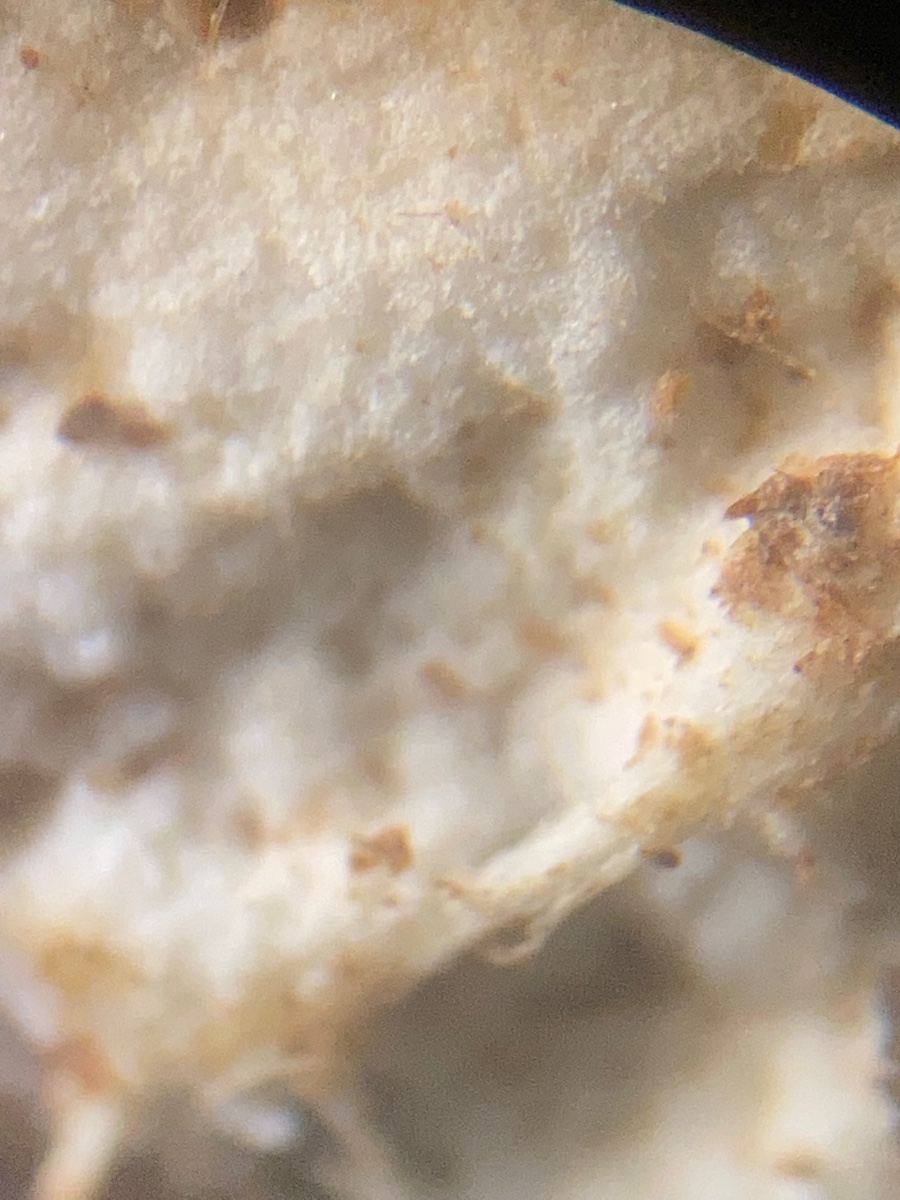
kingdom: Fungi
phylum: Basidiomycota
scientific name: Basidiomycota
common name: basidiesvampe
